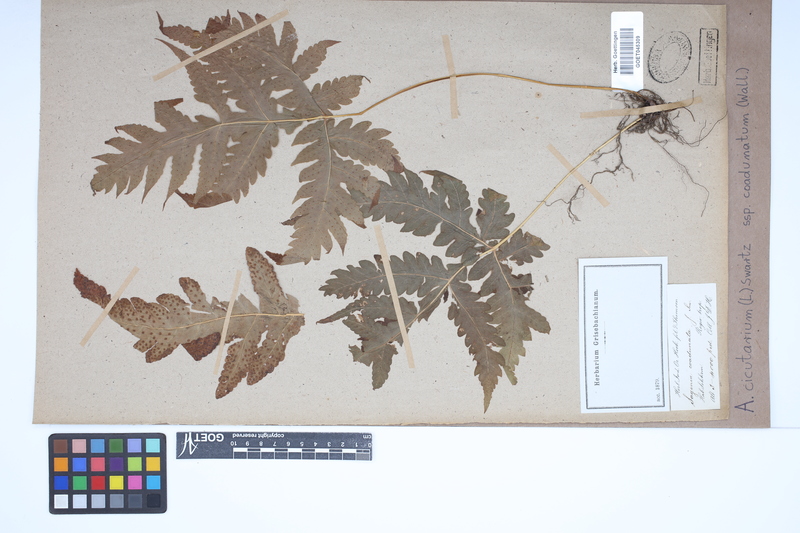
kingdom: Plantae
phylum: Tracheophyta
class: Polypodiopsida
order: Polypodiales
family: Tectariaceae
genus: Tectaria
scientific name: Tectaria cicutaria
